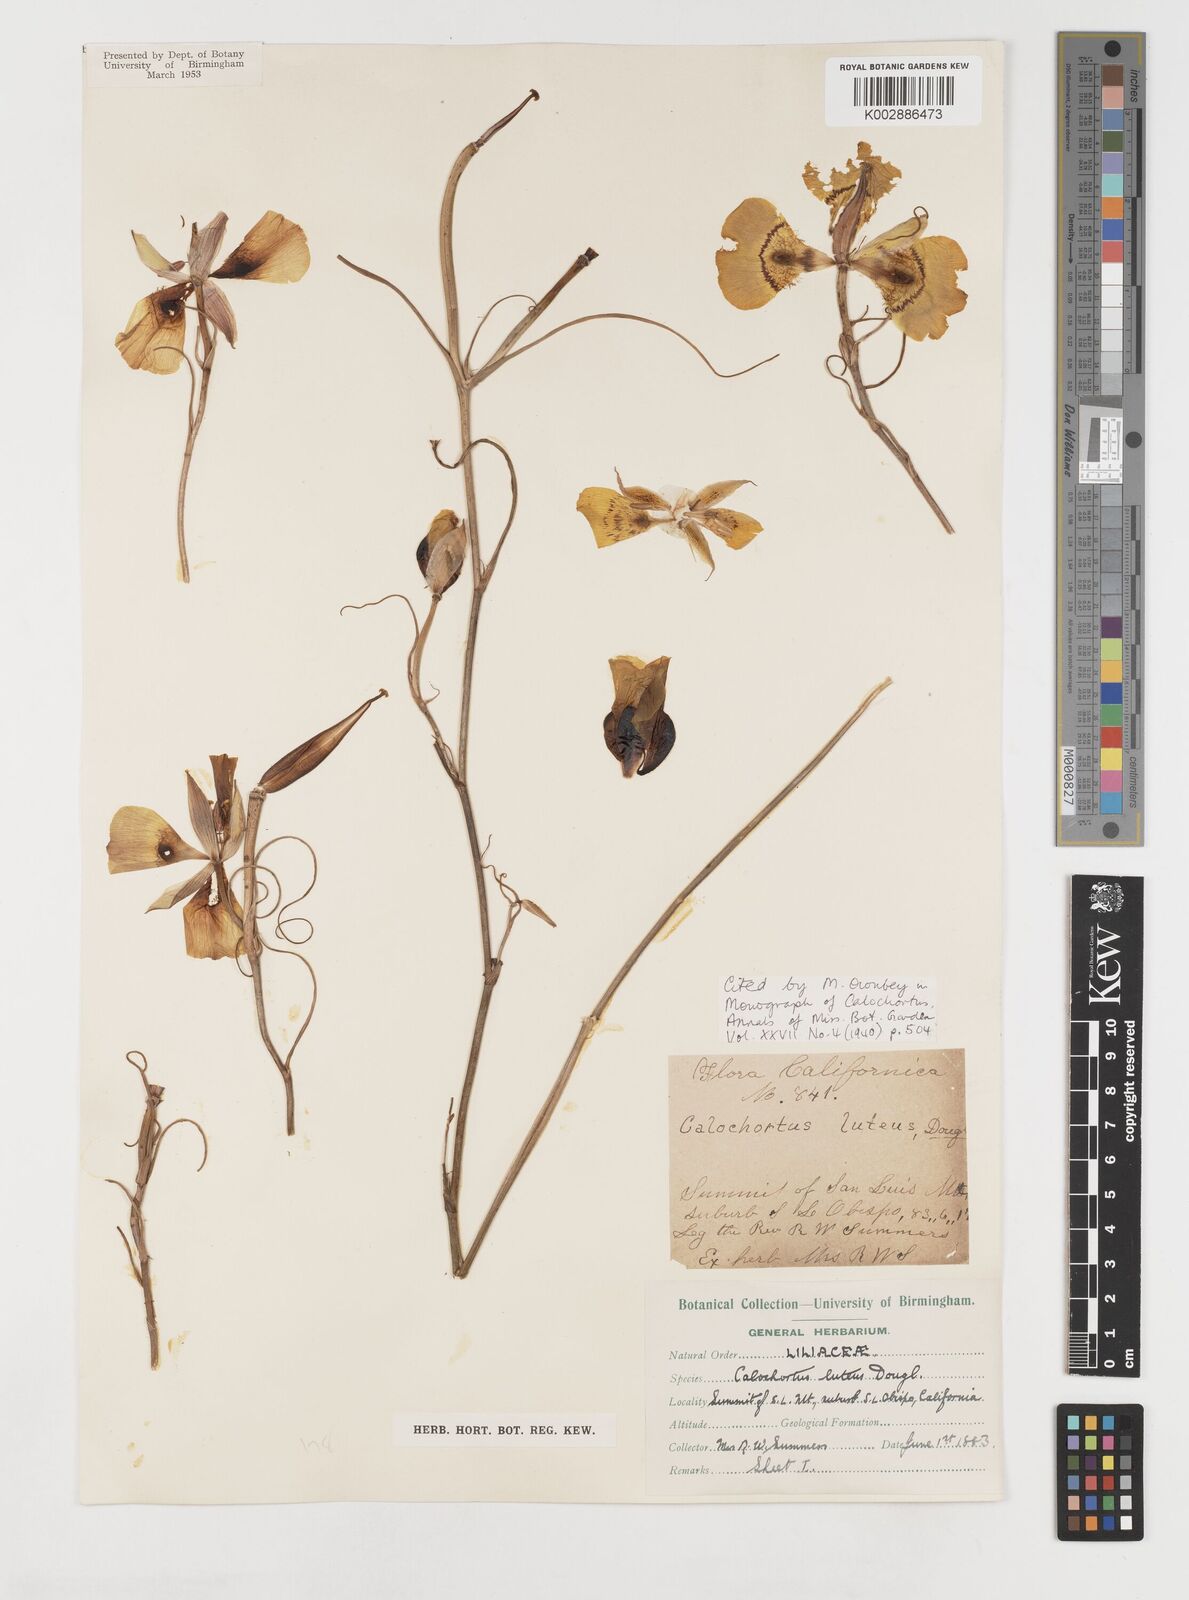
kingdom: Plantae
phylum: Tracheophyta
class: Liliopsida
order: Liliales
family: Liliaceae
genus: Calochortus
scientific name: Calochortus clavatus
